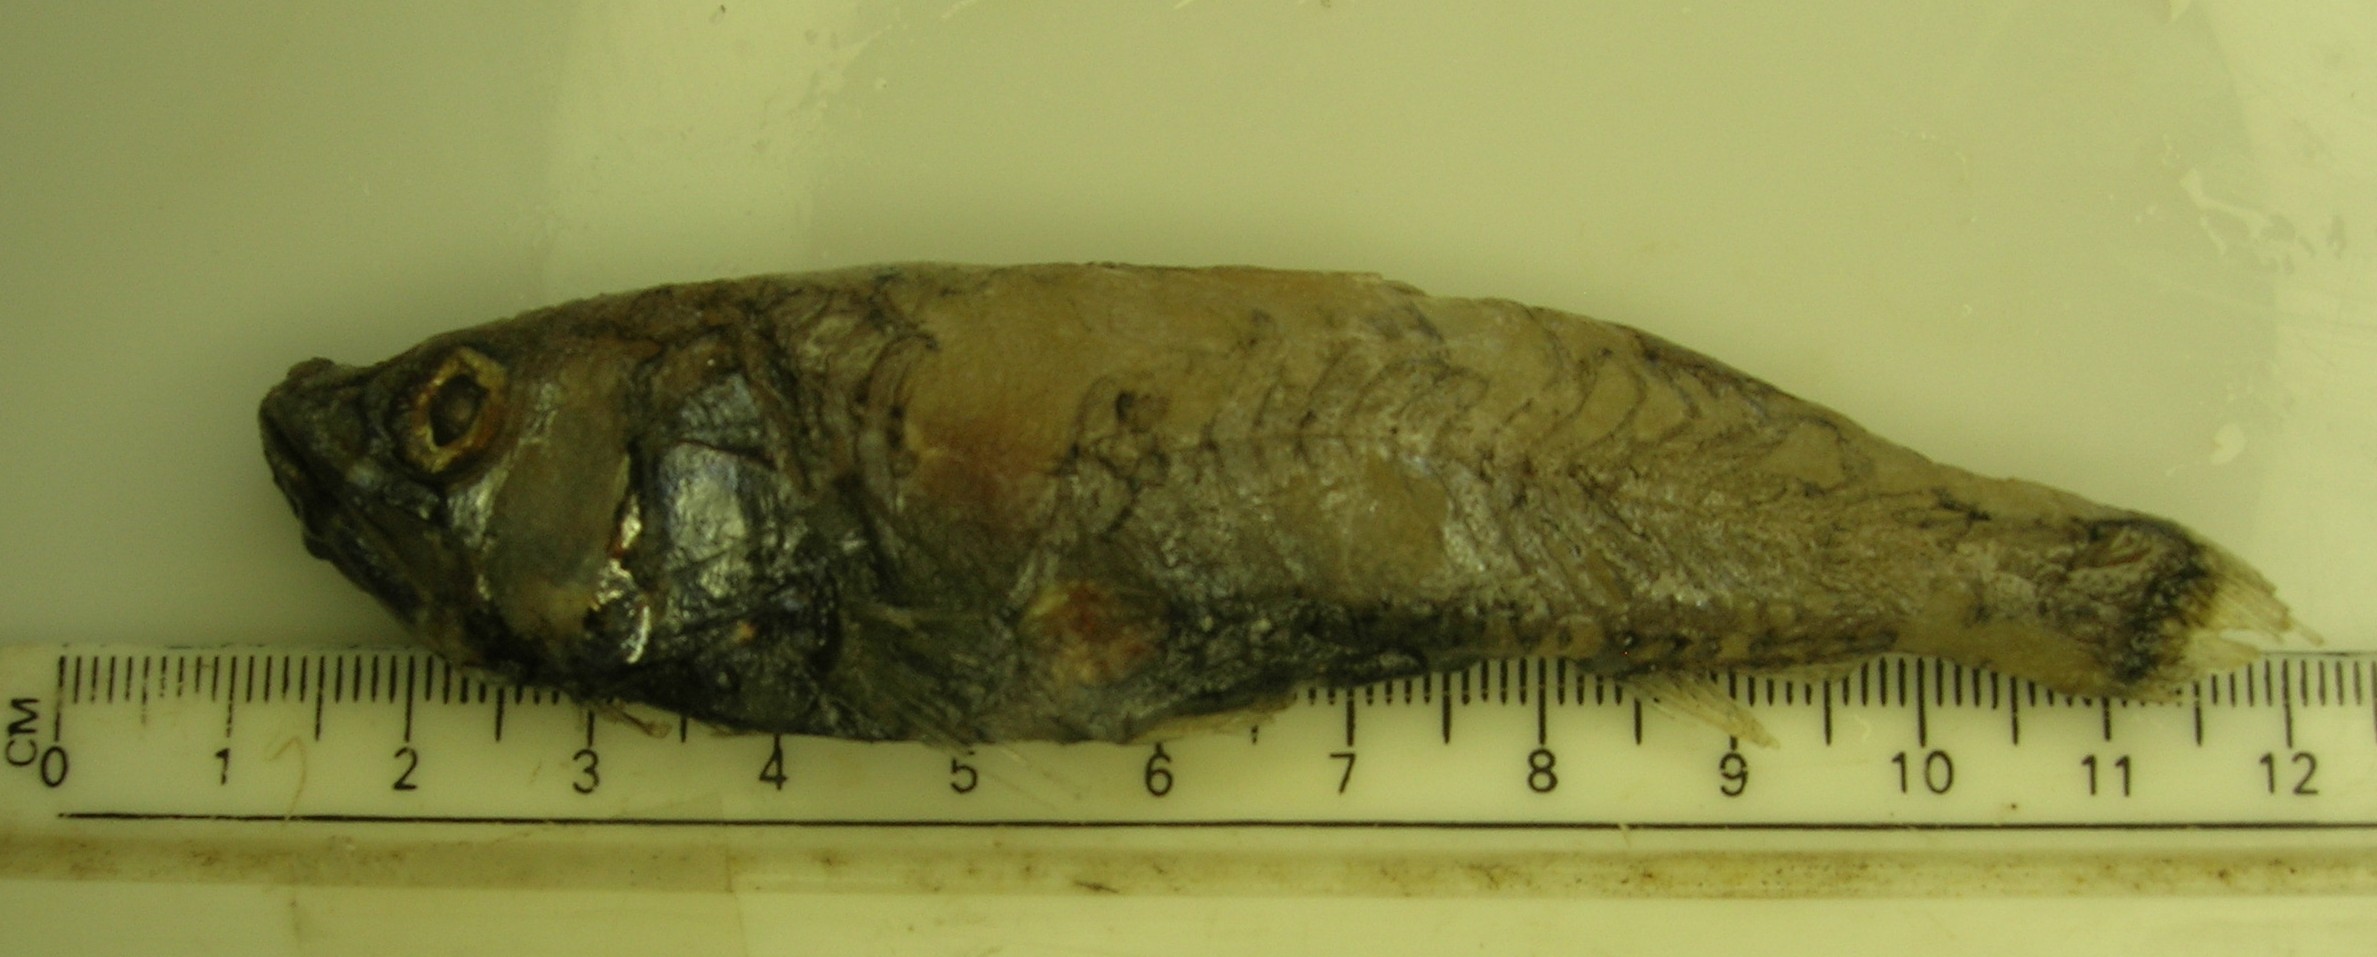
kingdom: Animalia
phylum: Chordata
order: Myctophiformes
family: Neoscopelidae
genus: Neoscopelus
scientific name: Neoscopelus microchir
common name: Shortfin neoscopelid
